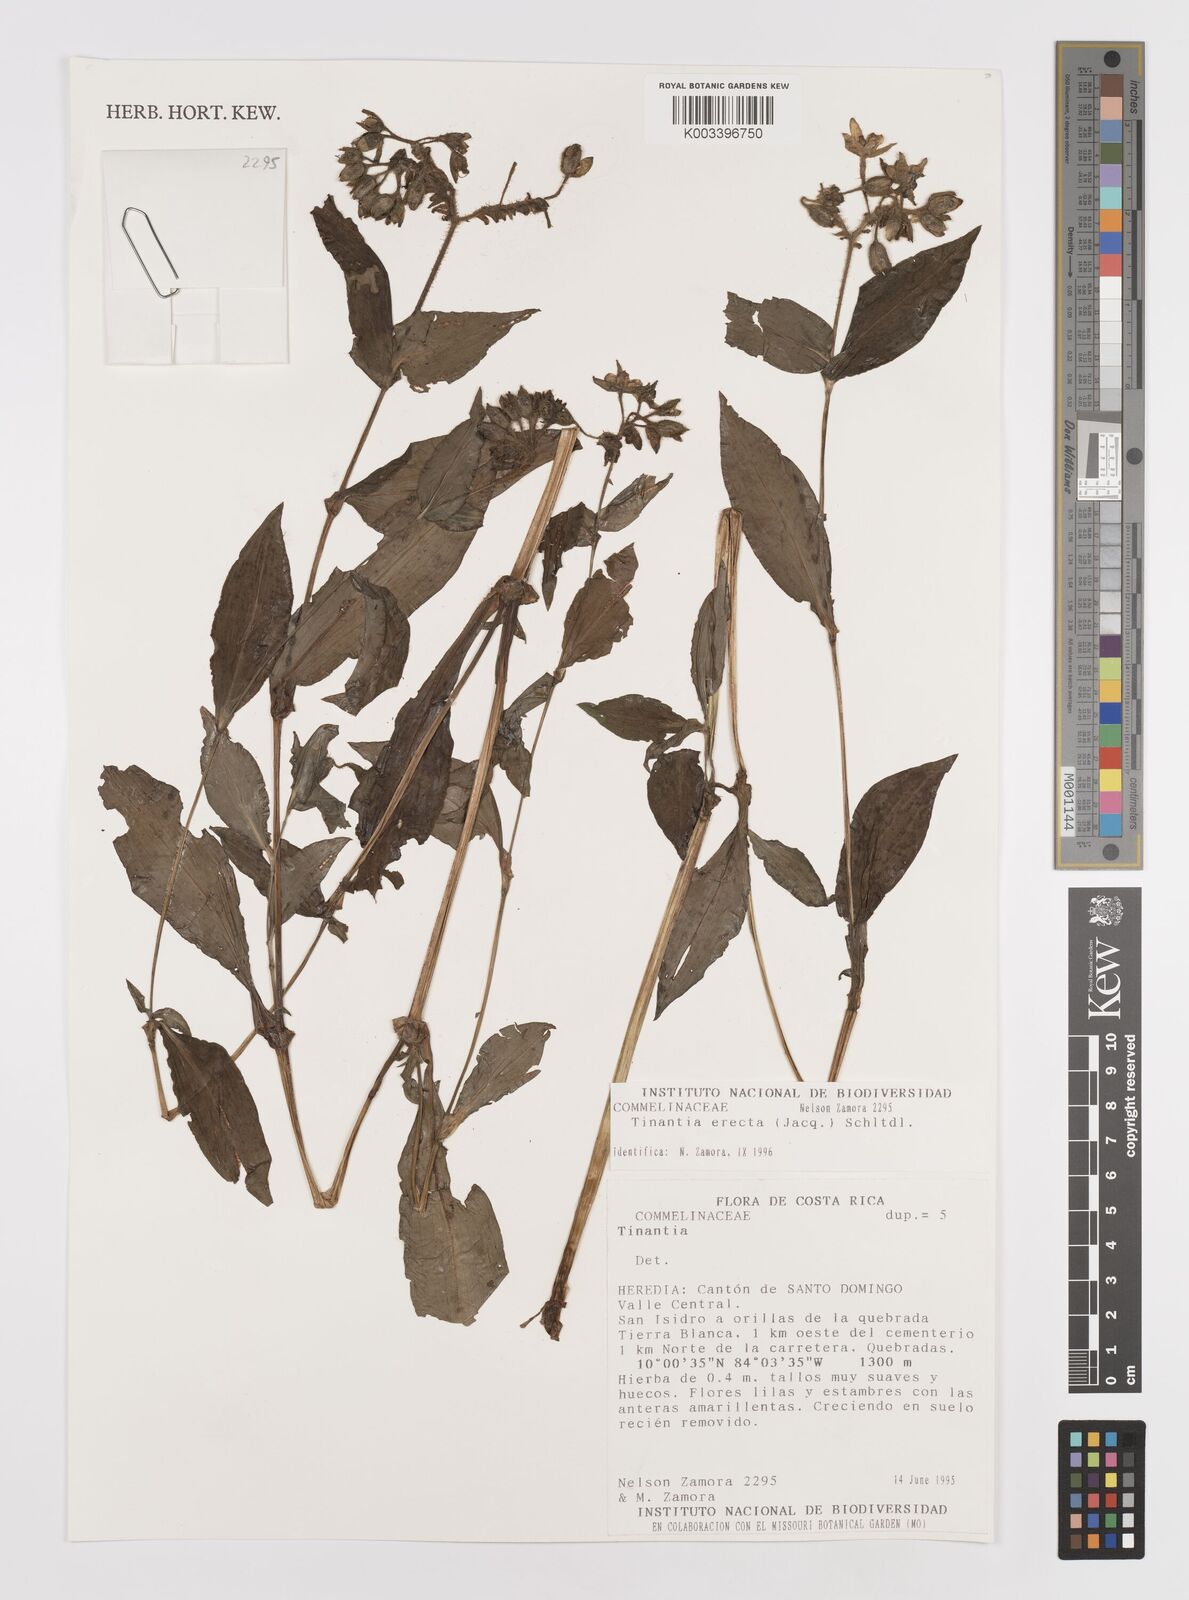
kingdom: Plantae
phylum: Tracheophyta
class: Liliopsida
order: Commelinales
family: Commelinaceae
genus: Tinantia
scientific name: Tinantia erecta
